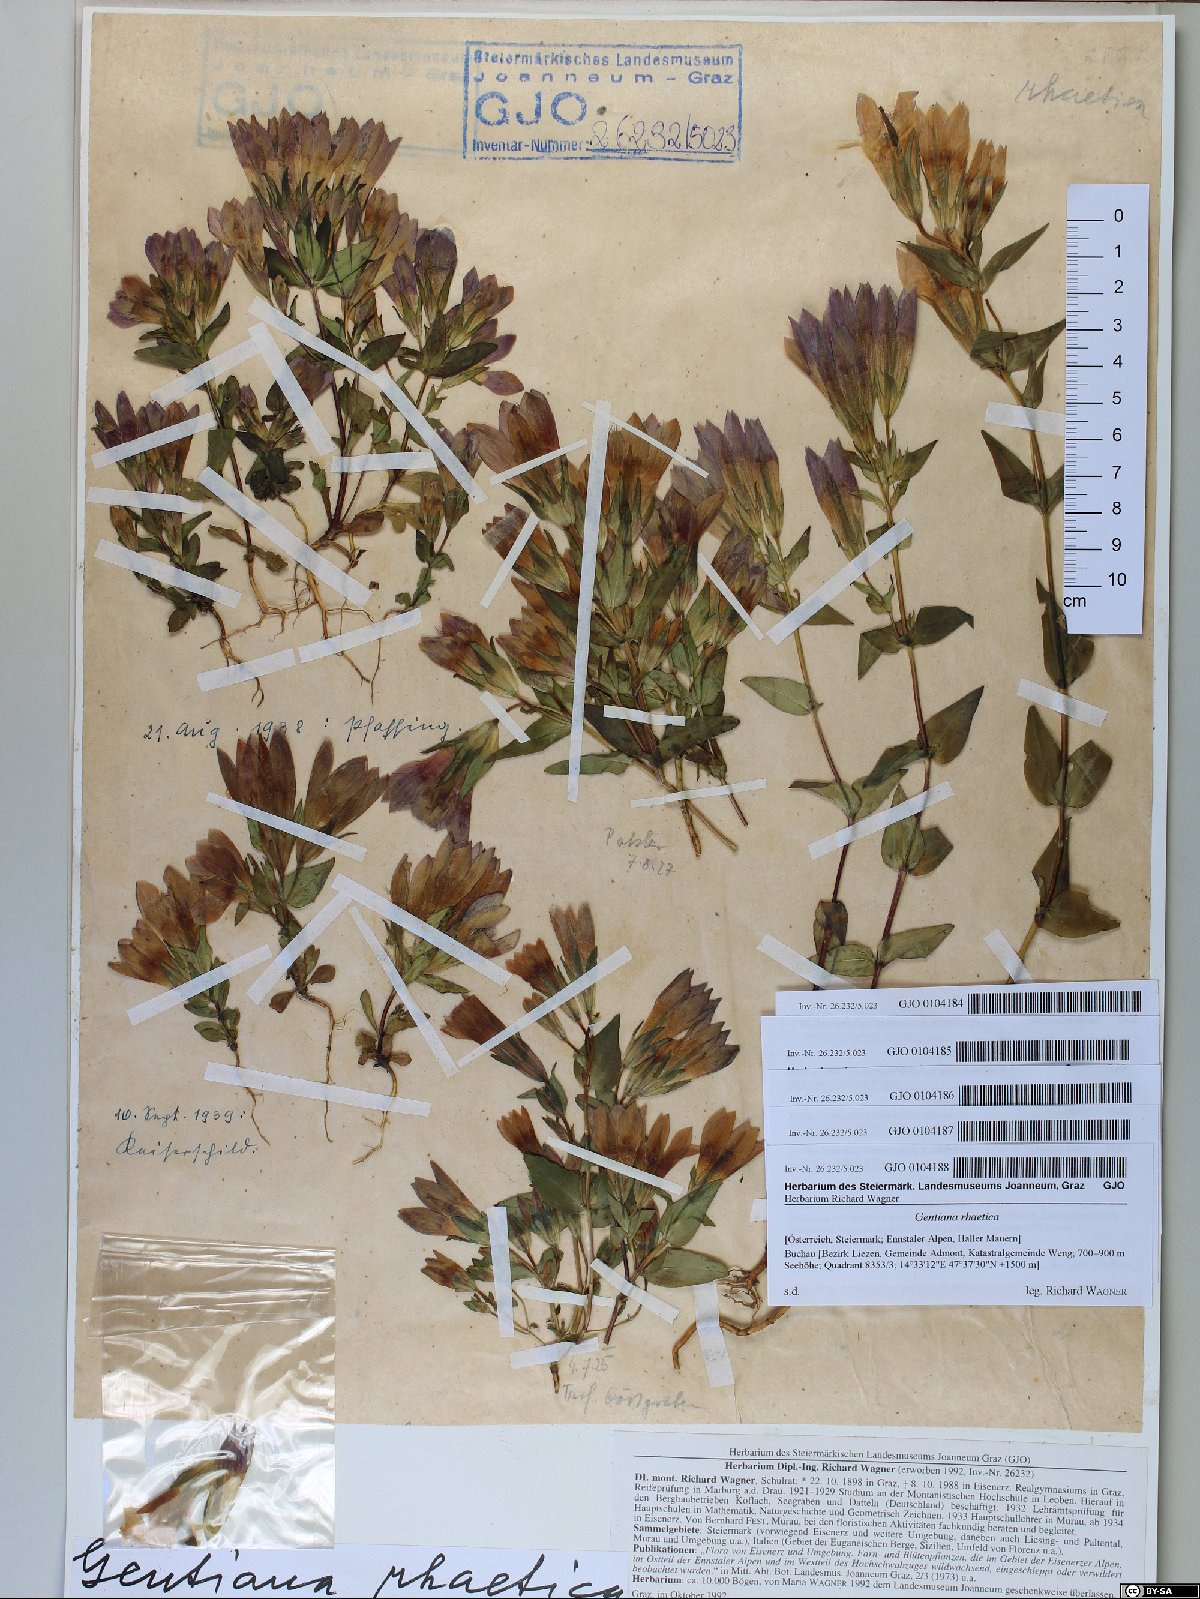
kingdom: Plantae
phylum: Tracheophyta
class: Magnoliopsida
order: Gentianales
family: Gentianaceae
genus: Gentianella
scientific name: Gentianella rhaetica
